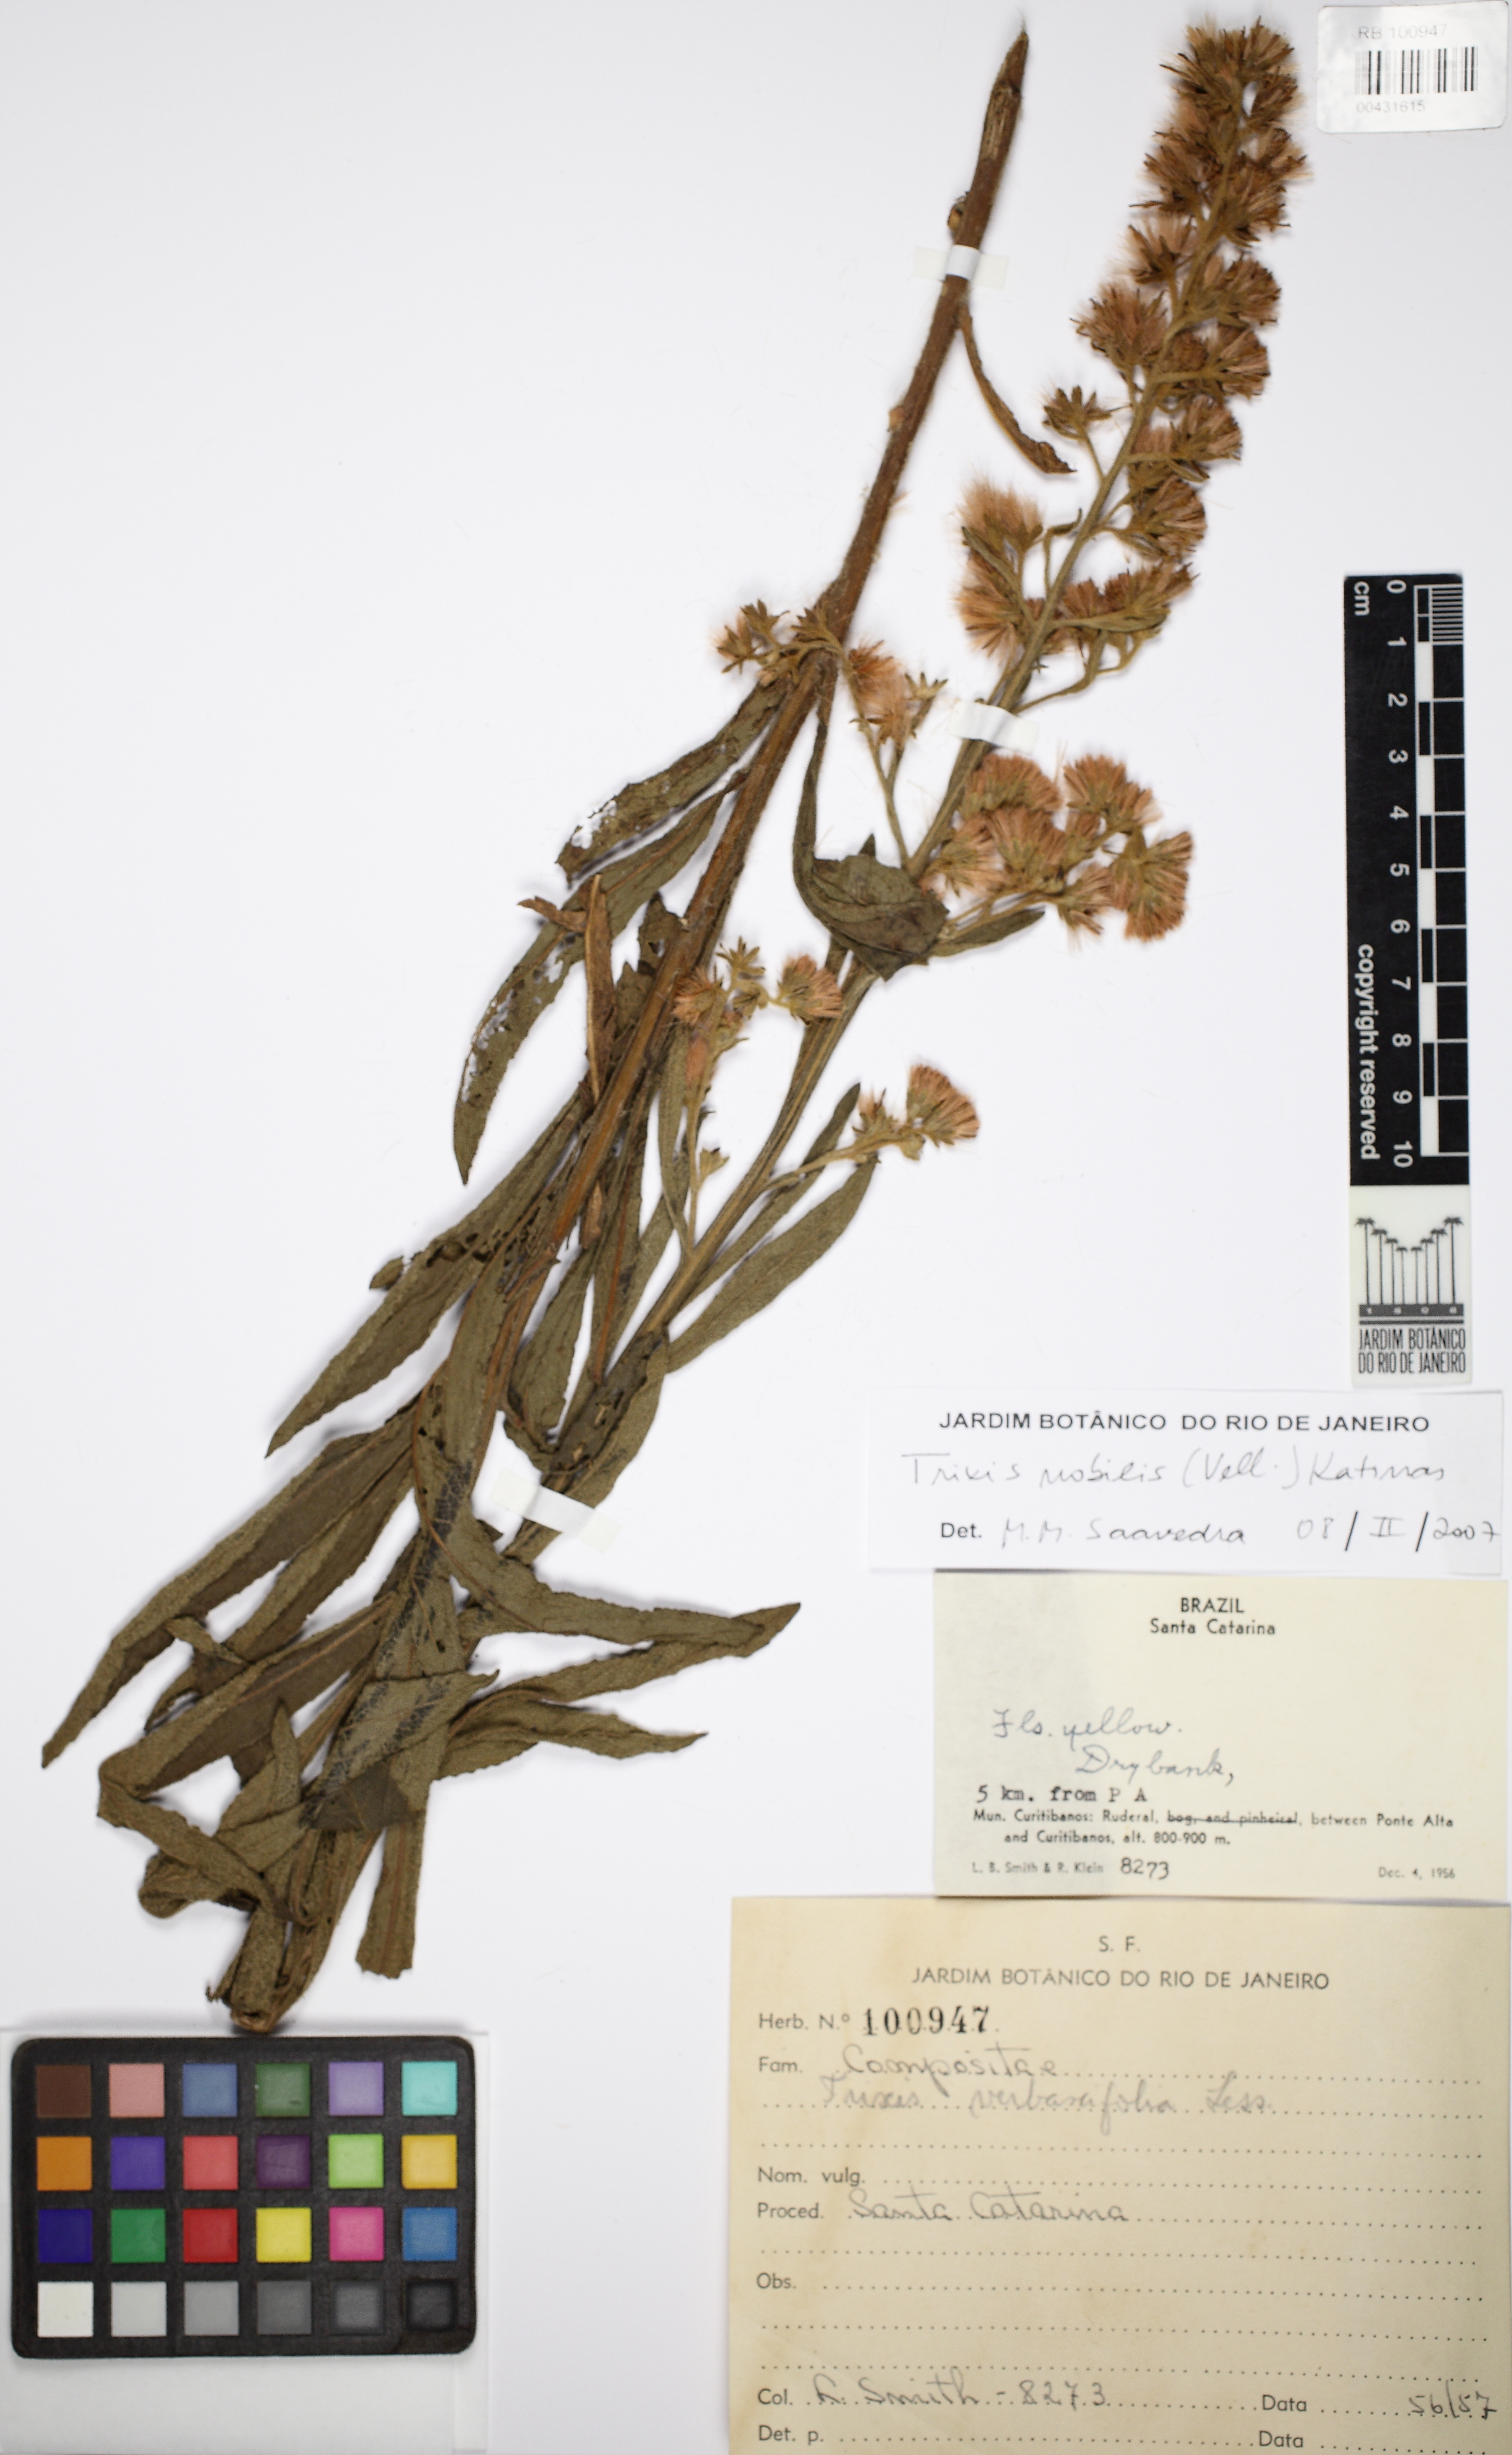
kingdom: Plantae
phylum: Tracheophyta
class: Magnoliopsida
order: Asterales
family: Asteraceae
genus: Trixis
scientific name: Trixis nobilis
